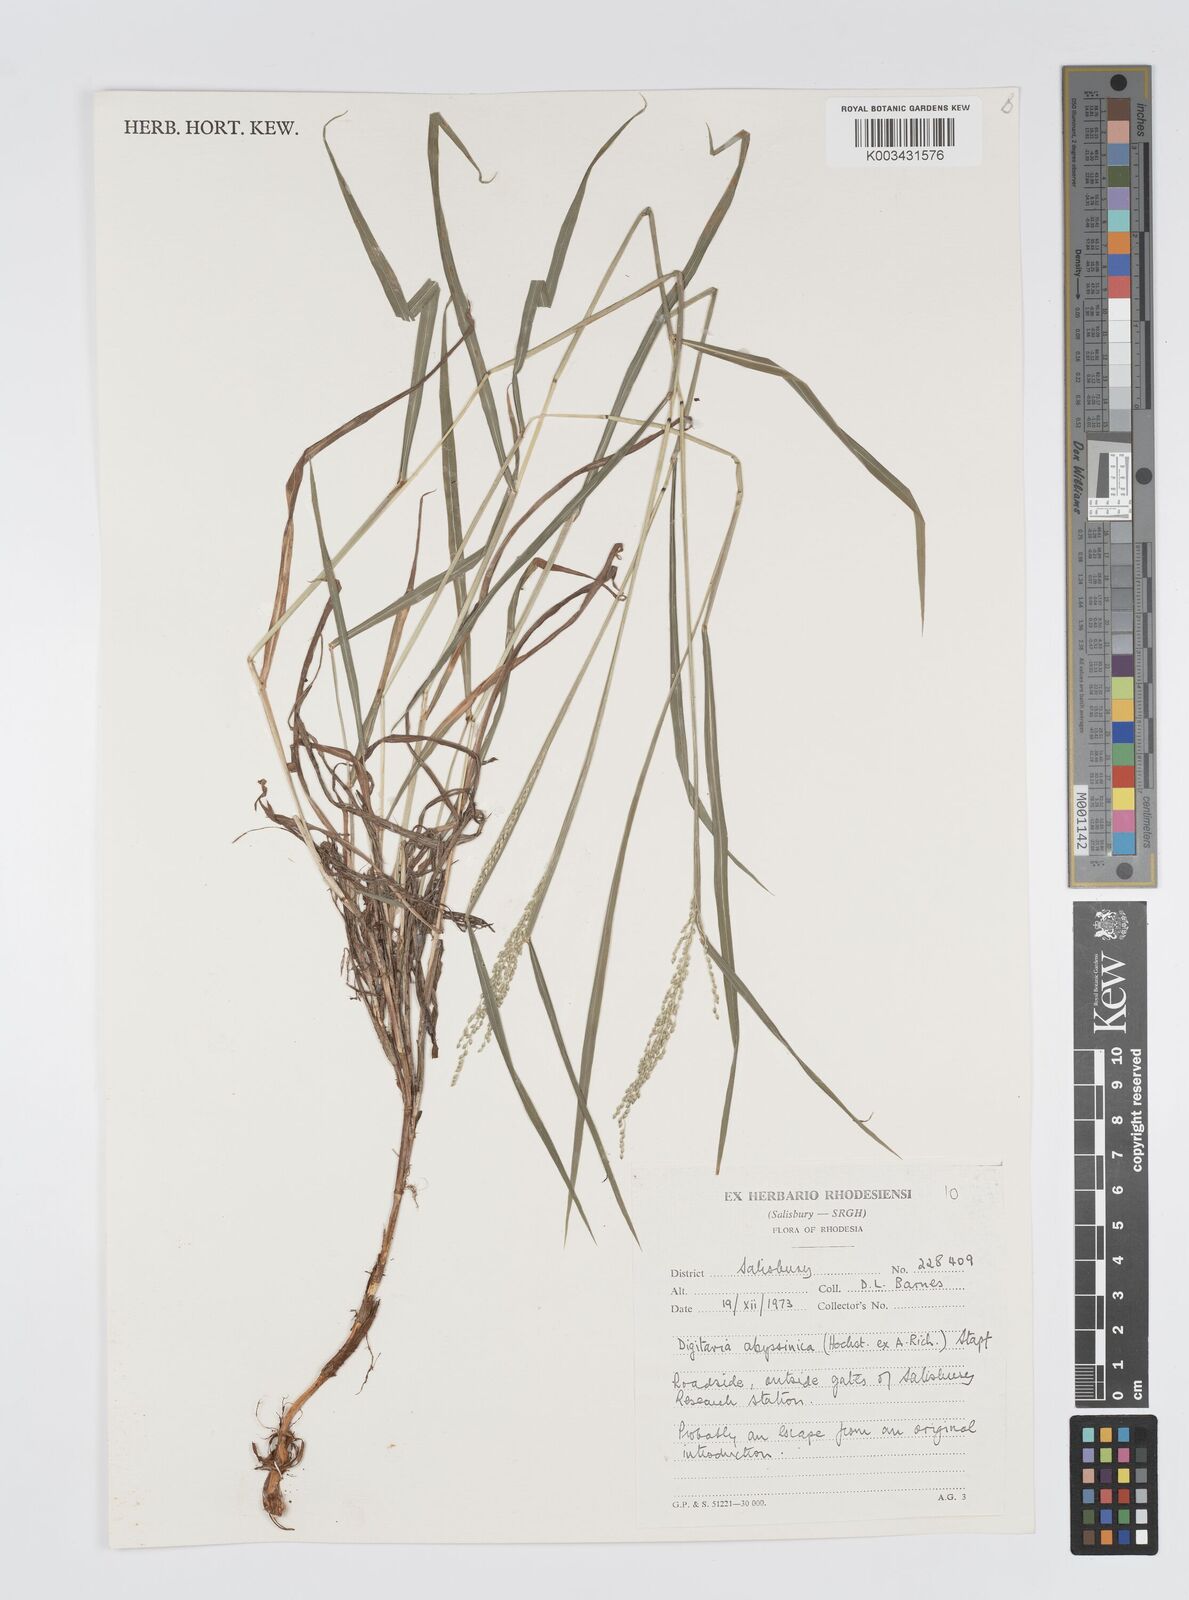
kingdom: Plantae
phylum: Tracheophyta
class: Liliopsida
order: Poales
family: Poaceae
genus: Digitaria
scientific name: Digitaria abyssinica
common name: African couchgrass
